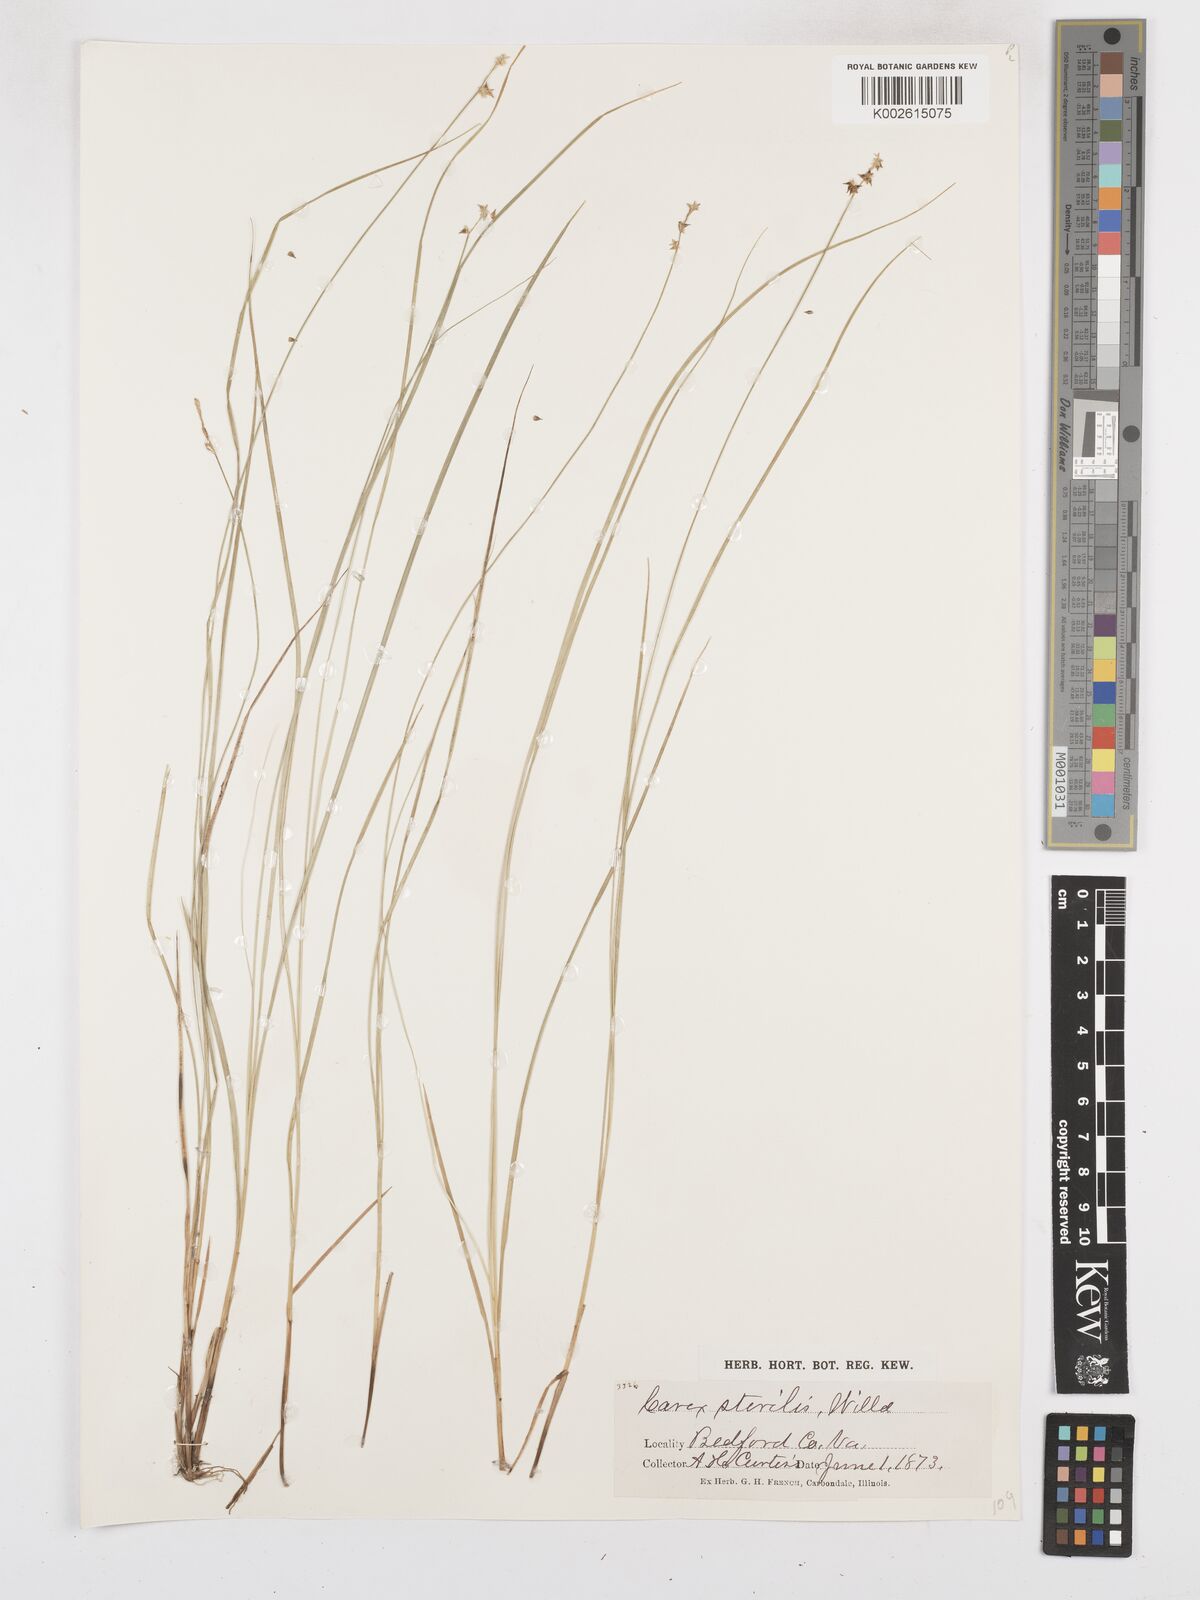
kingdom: Plantae
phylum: Tracheophyta
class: Liliopsida
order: Poales
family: Cyperaceae
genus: Carex
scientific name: Carex sterilis
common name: Dioecious sedge
